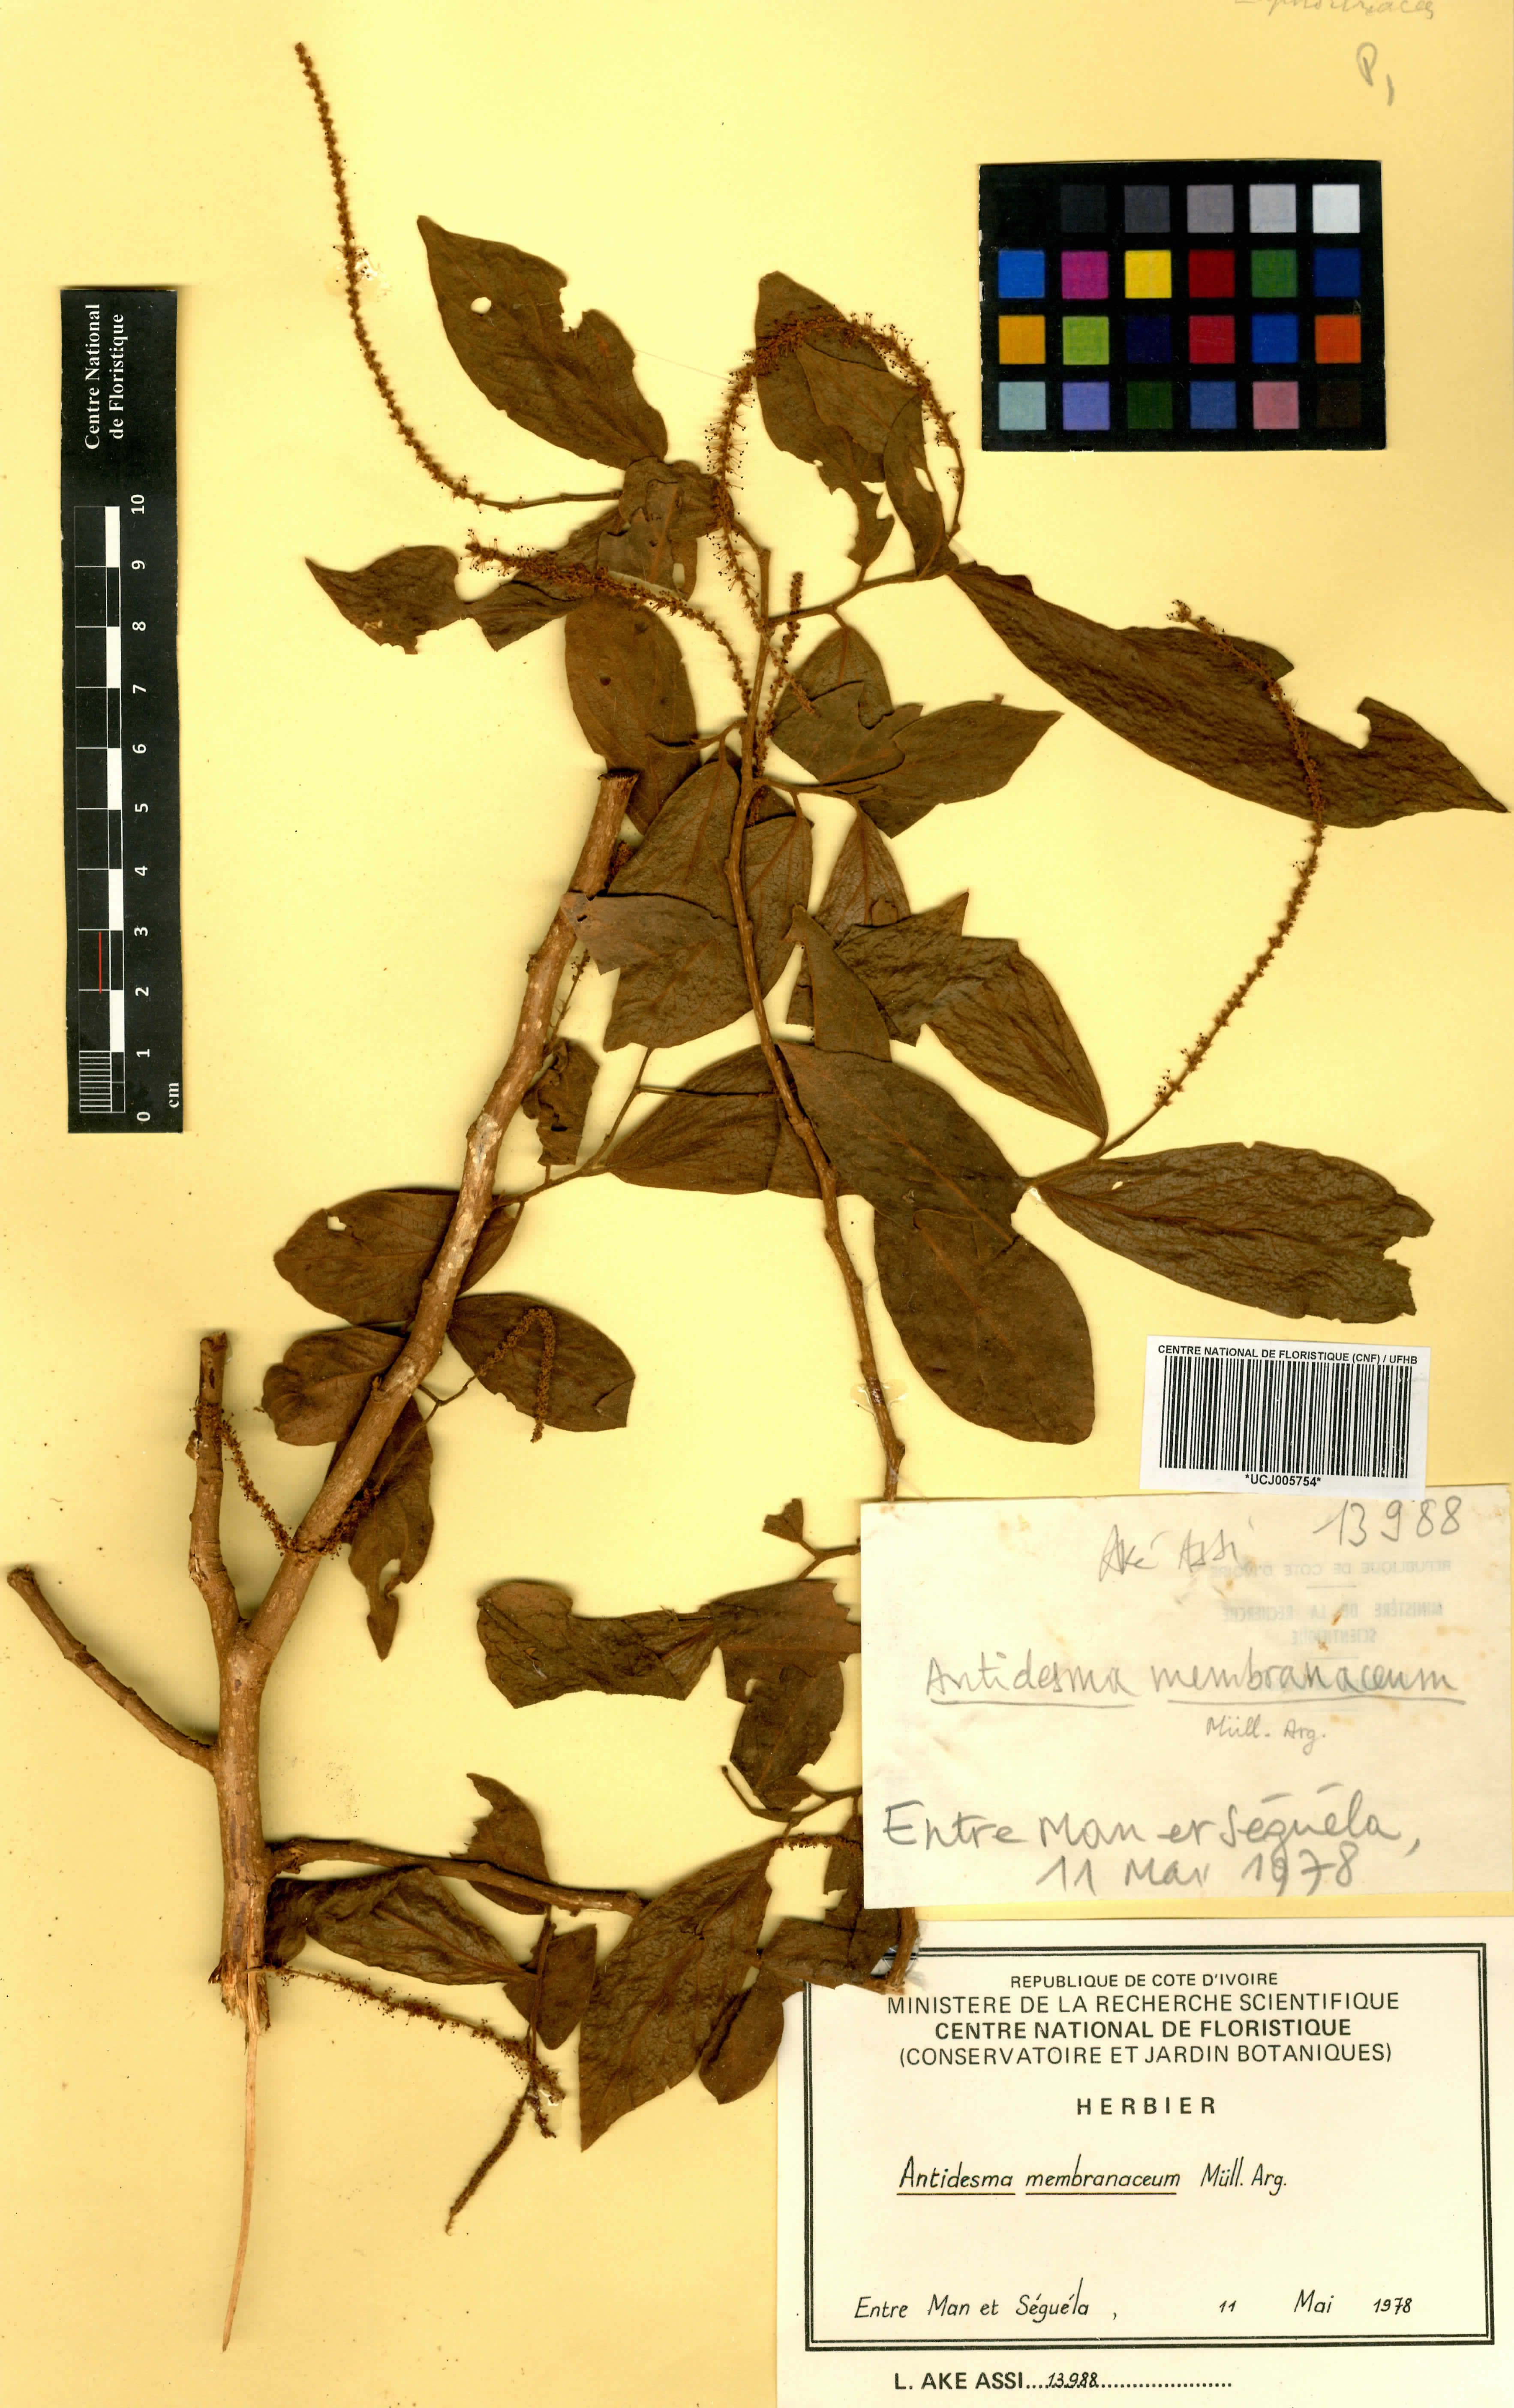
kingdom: Plantae
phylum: Tracheophyta
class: Magnoliopsida
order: Malpighiales
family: Phyllanthaceae
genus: Antidesma
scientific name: Antidesma membranaceum
